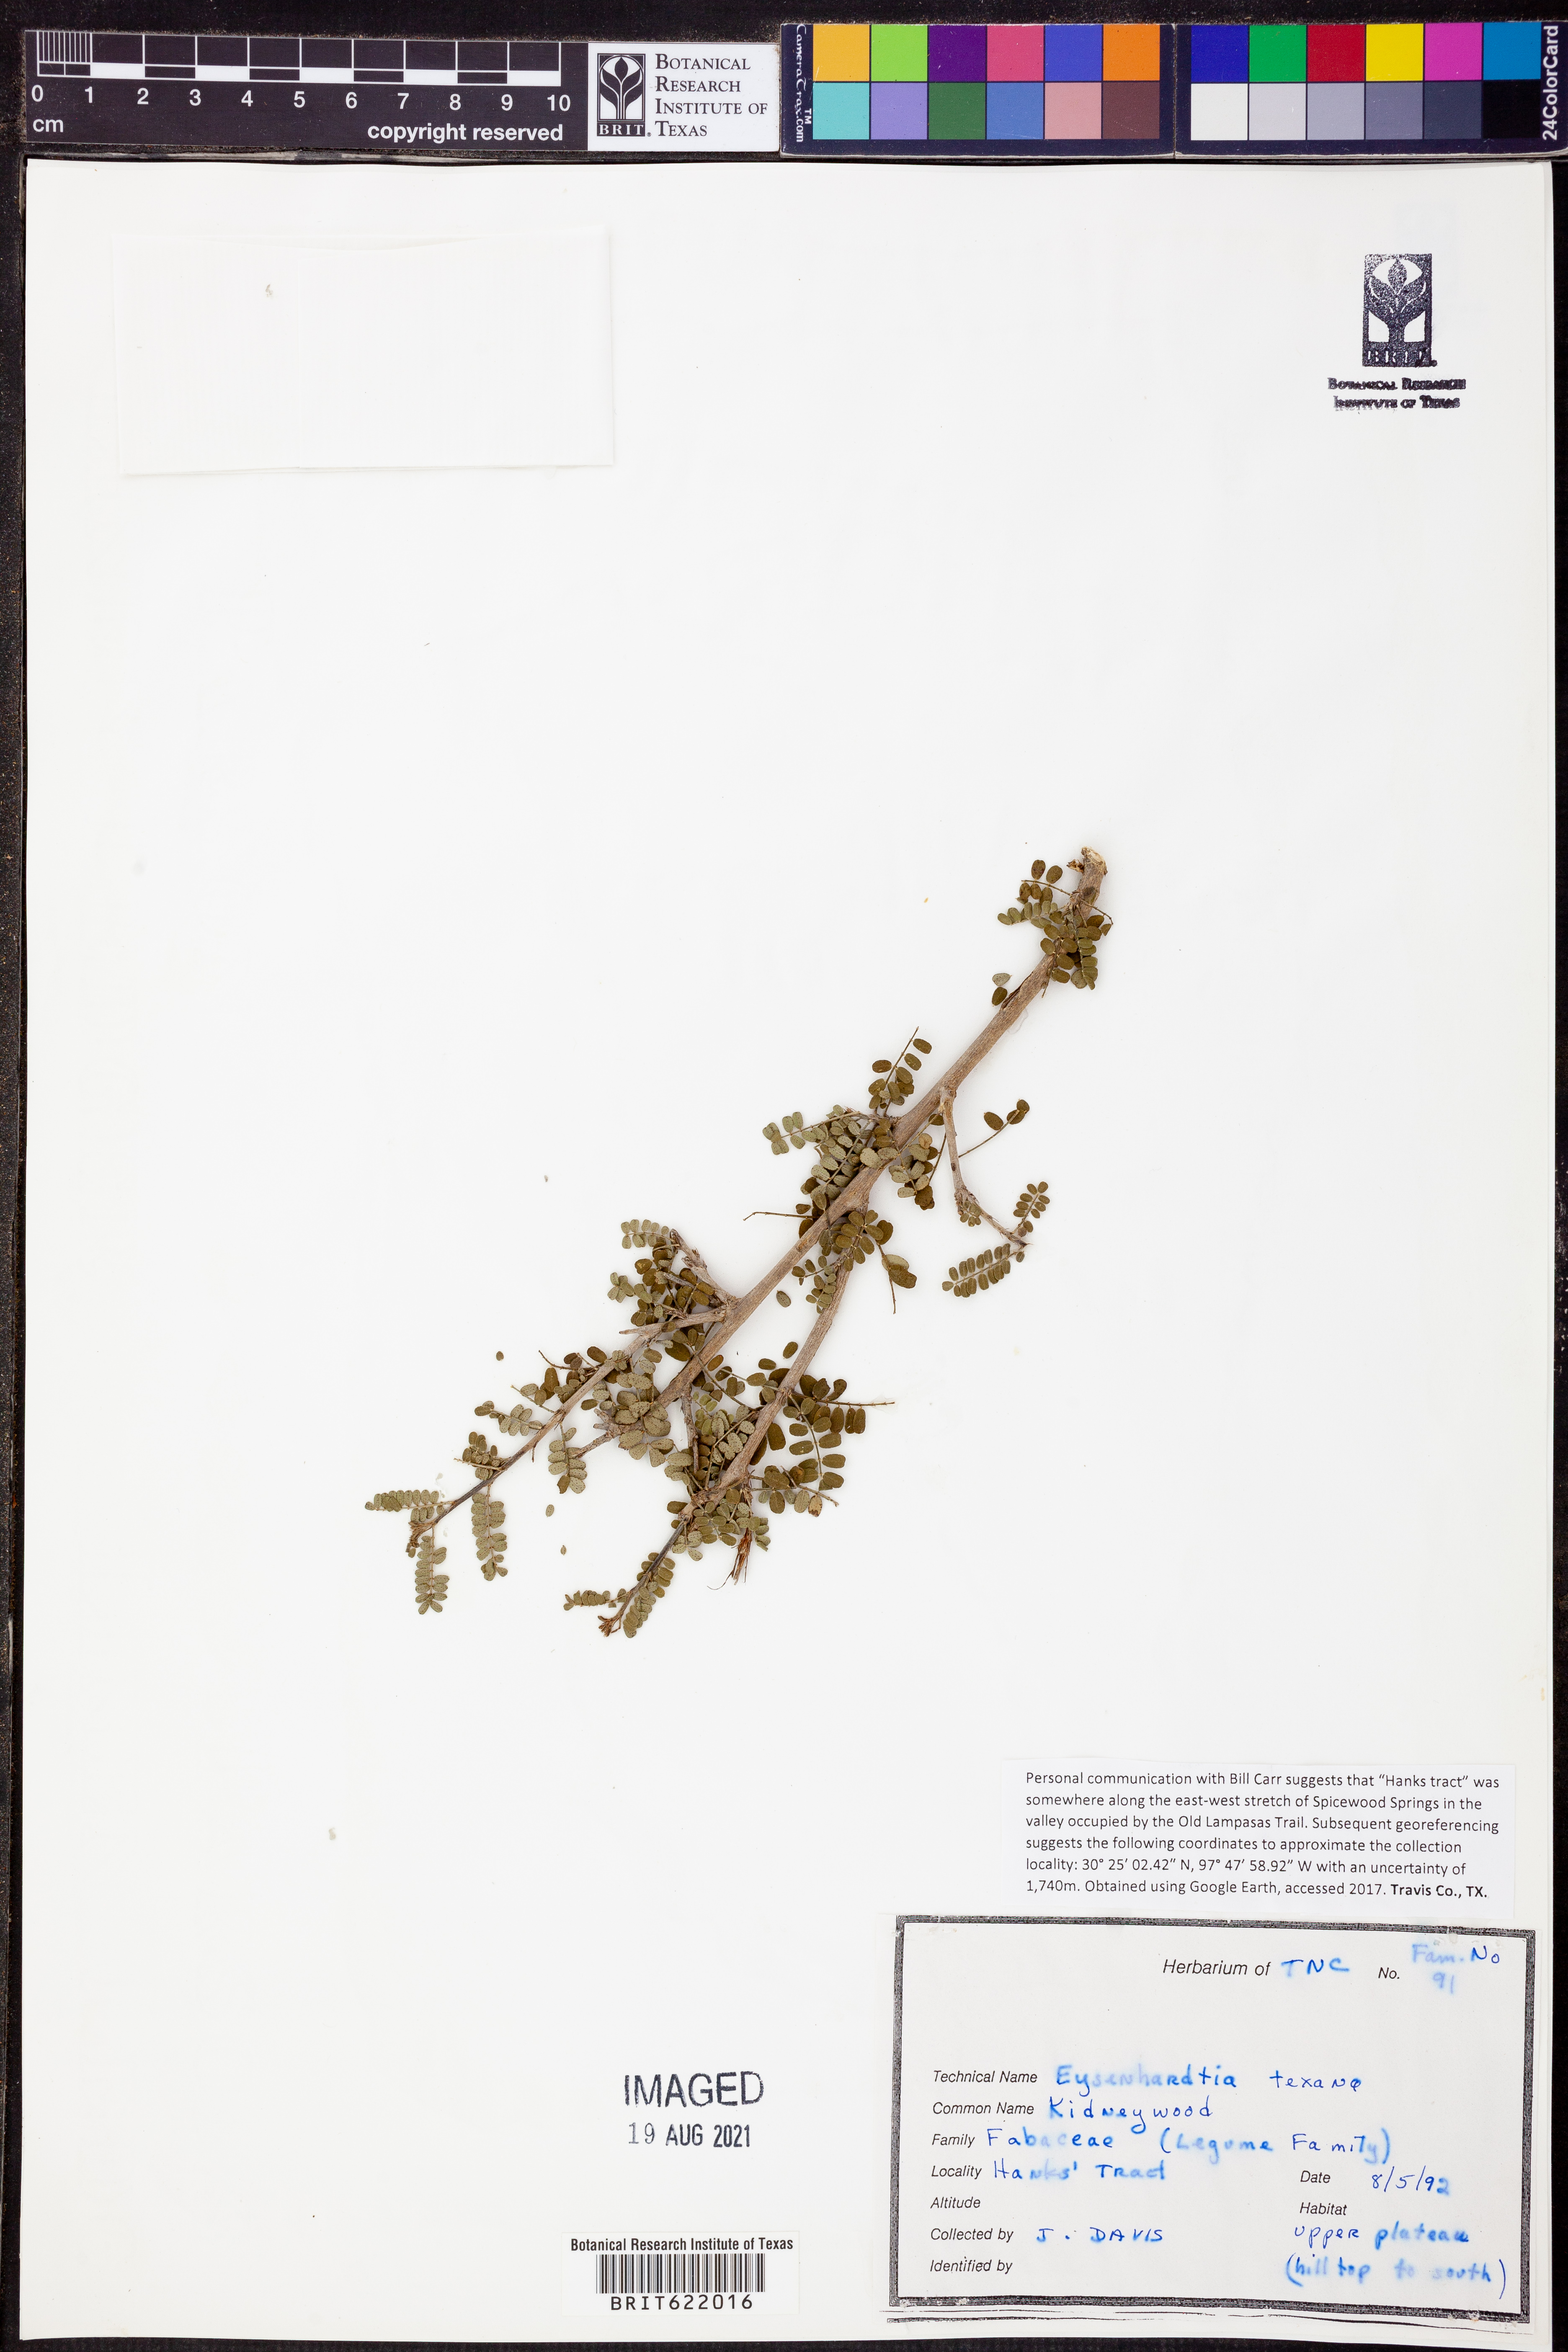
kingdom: Plantae
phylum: Tracheophyta
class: Magnoliopsida
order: Fabales
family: Fabaceae
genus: Eysenhardtia
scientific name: Eysenhardtia texana
